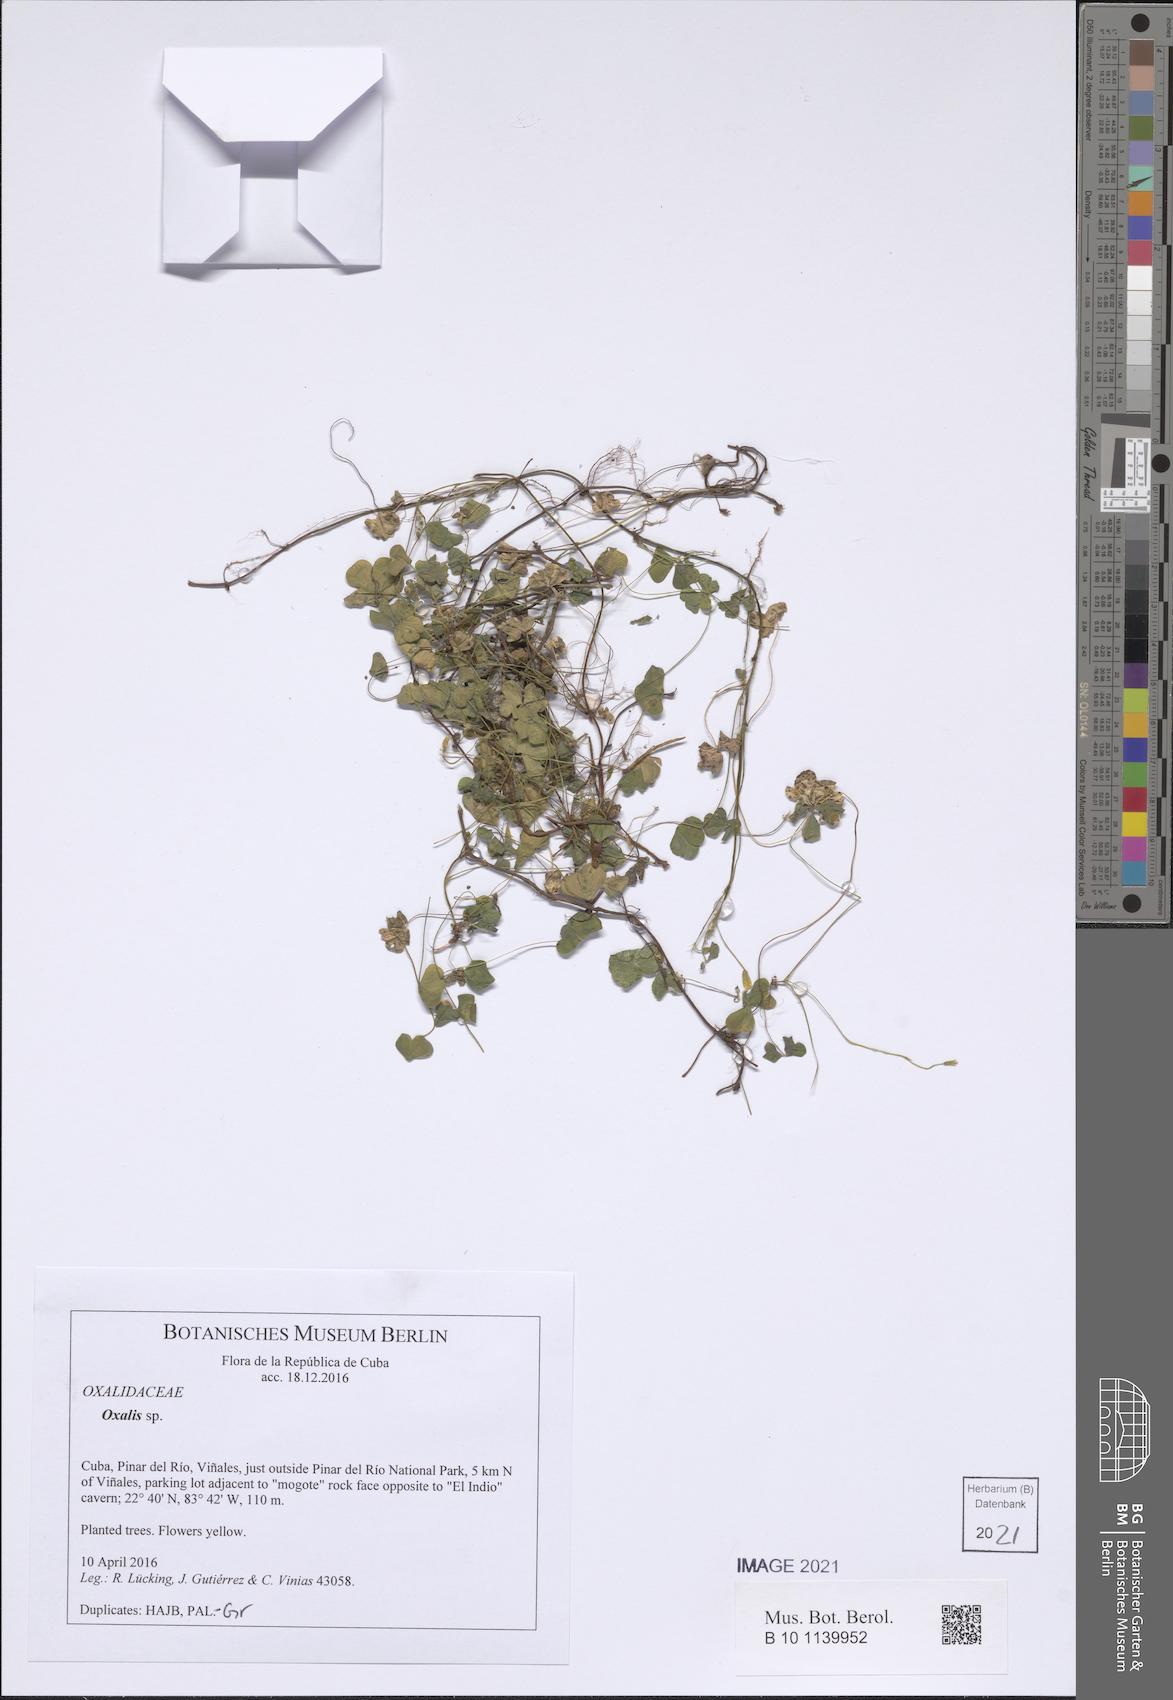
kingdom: Plantae
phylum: Tracheophyta
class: Magnoliopsida
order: Oxalidales
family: Oxalidaceae
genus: Oxalis
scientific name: Oxalis corniculata
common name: Procumbent yellow-sorrel
